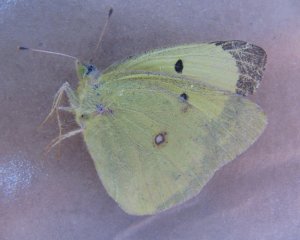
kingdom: Animalia
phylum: Arthropoda
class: Insecta
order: Lepidoptera
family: Pieridae
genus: Colias
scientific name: Colias philodice
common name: Clouded Sulphur
